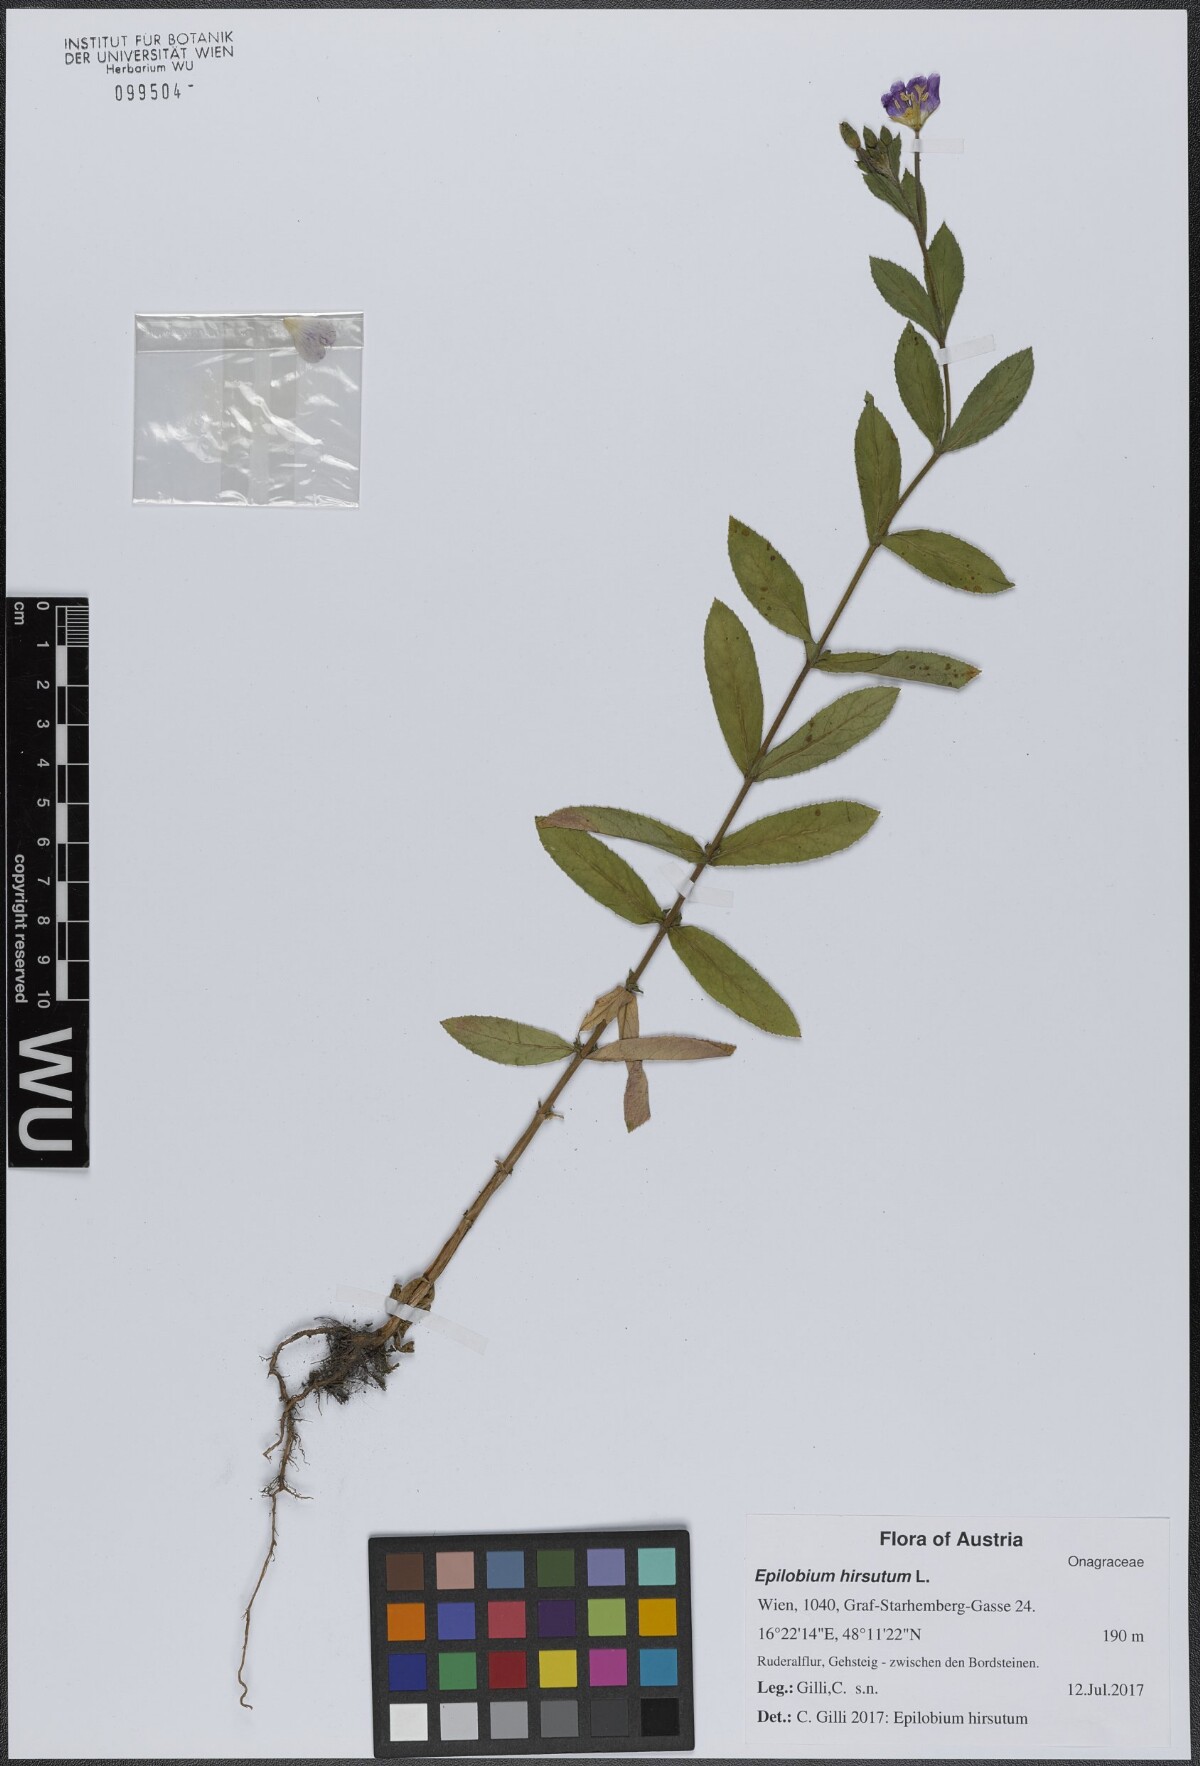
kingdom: Plantae
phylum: Tracheophyta
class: Magnoliopsida
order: Myrtales
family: Onagraceae
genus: Epilobium
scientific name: Epilobium hirsutum
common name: Great willowherb
